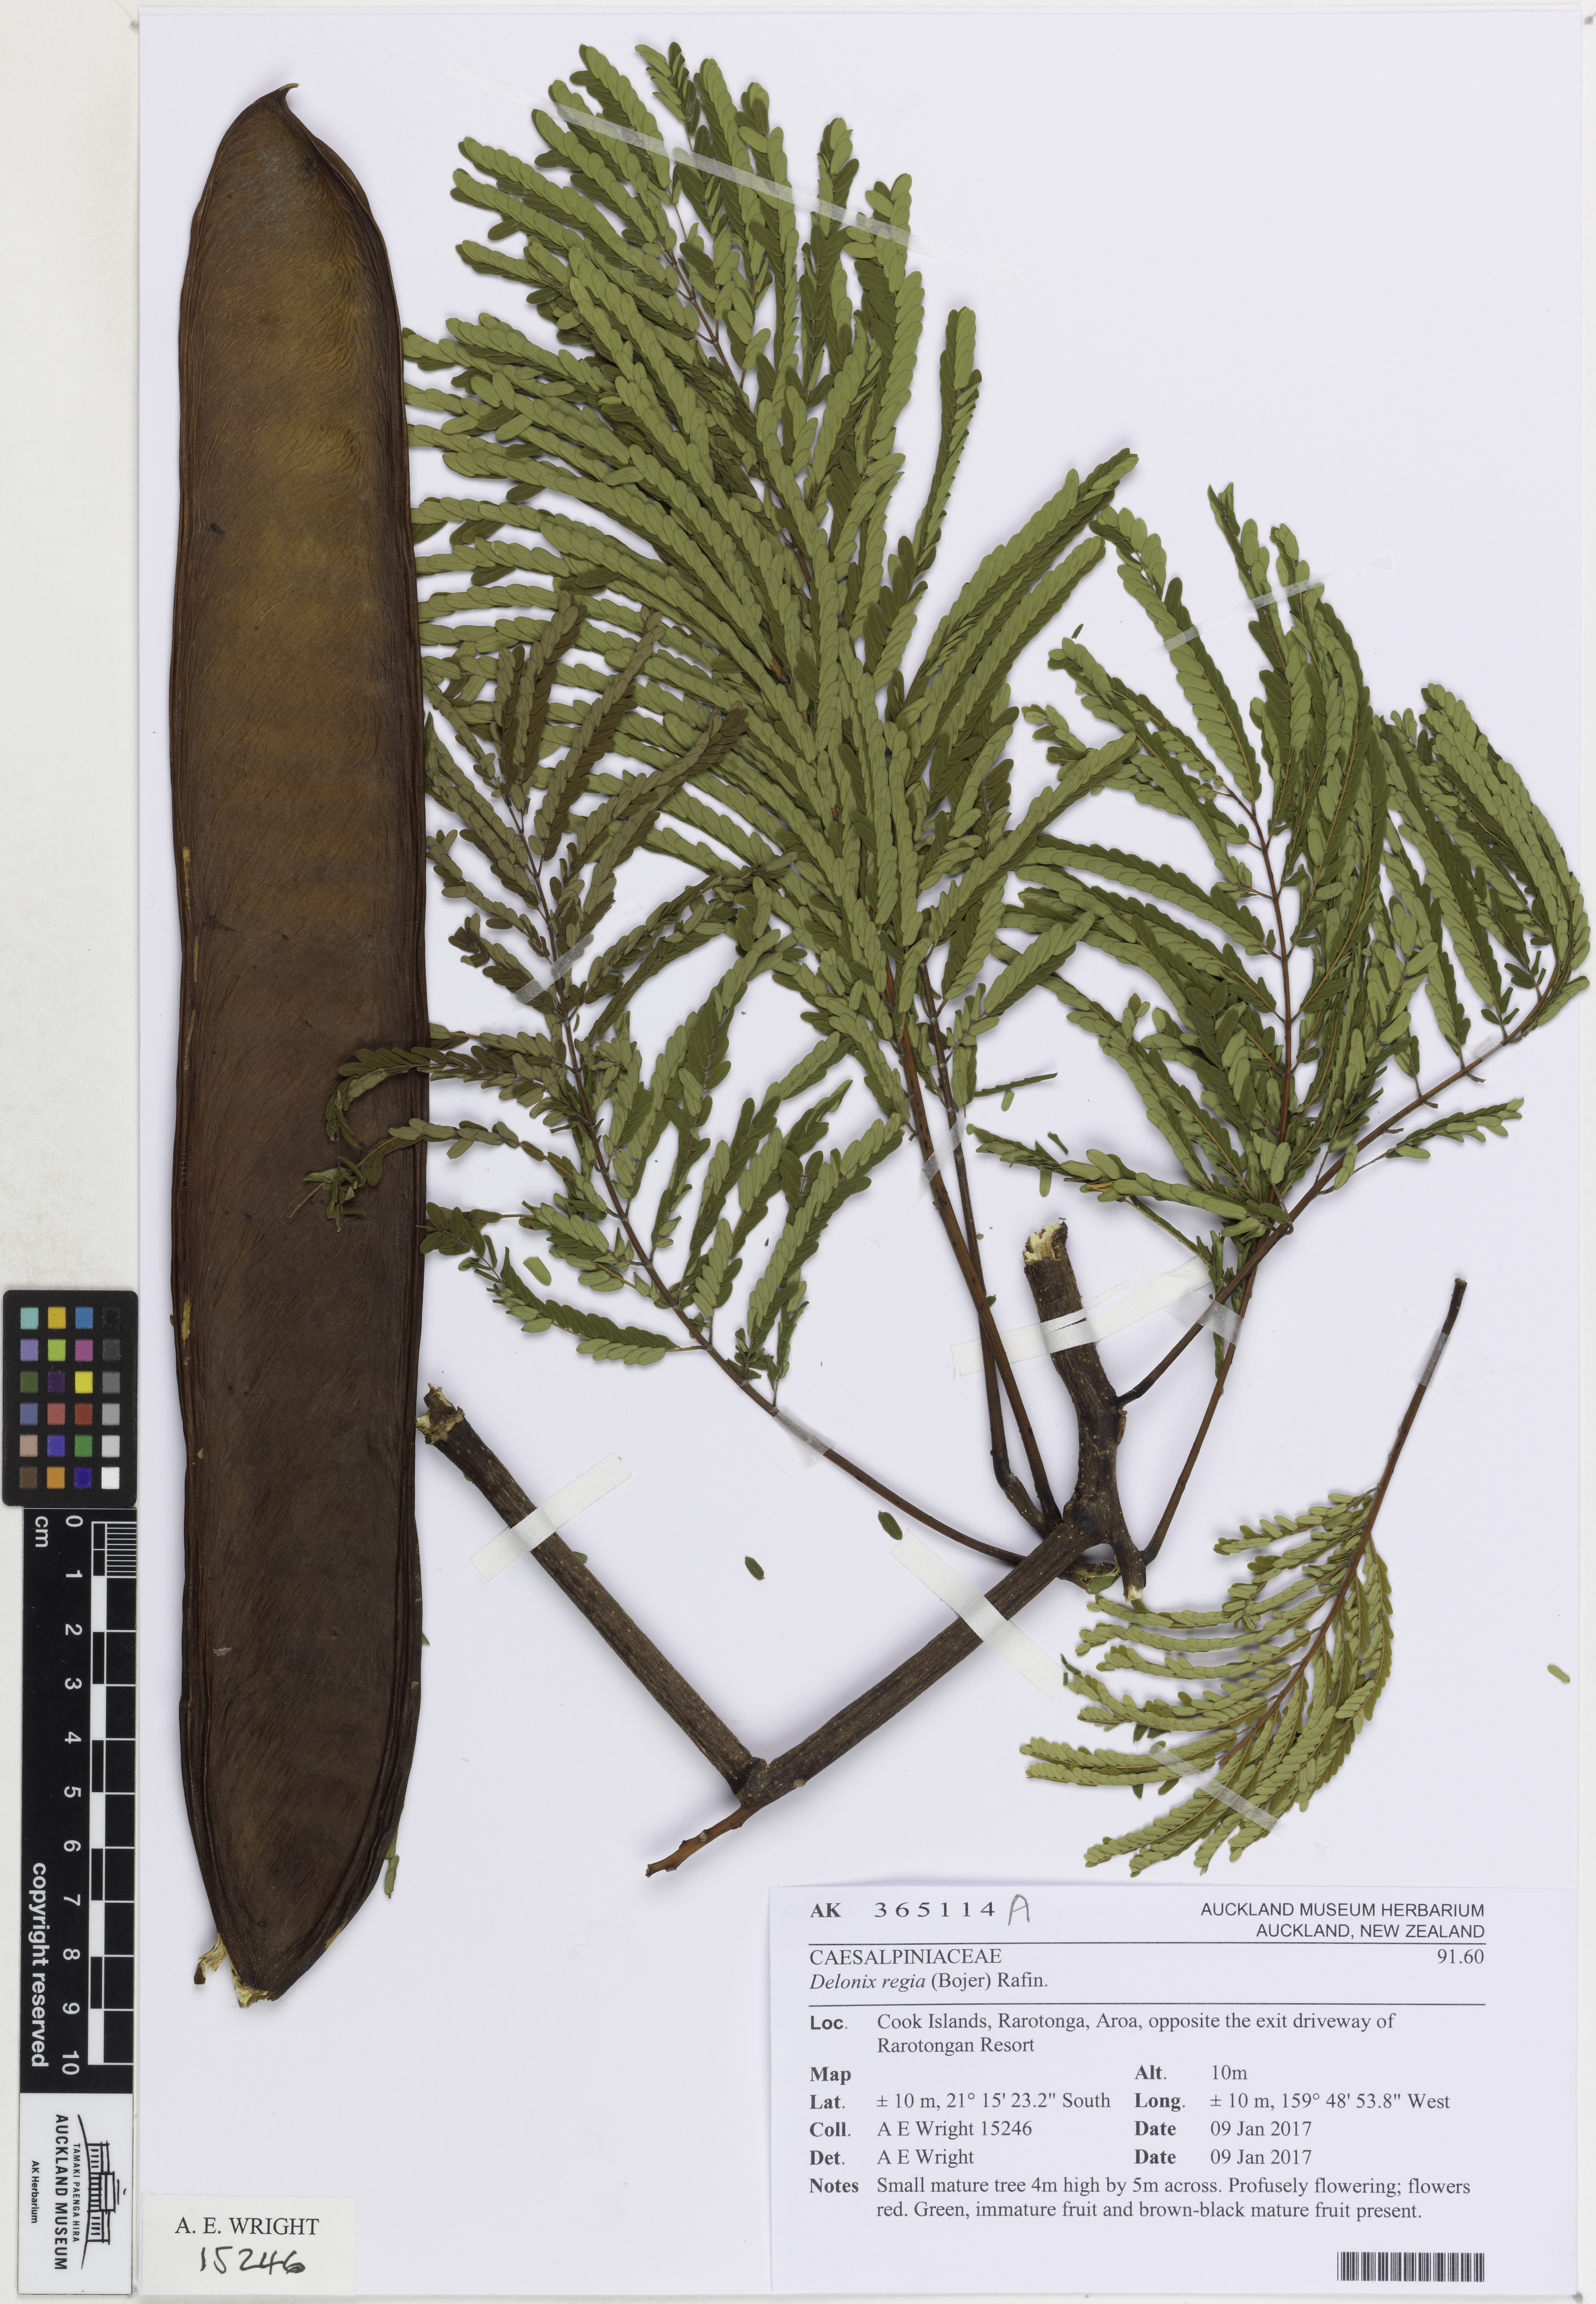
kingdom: Plantae
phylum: Tracheophyta
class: Magnoliopsida
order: Fabales
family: Fabaceae
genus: Delonix
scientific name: Delonix regia
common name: Royal poinciana
